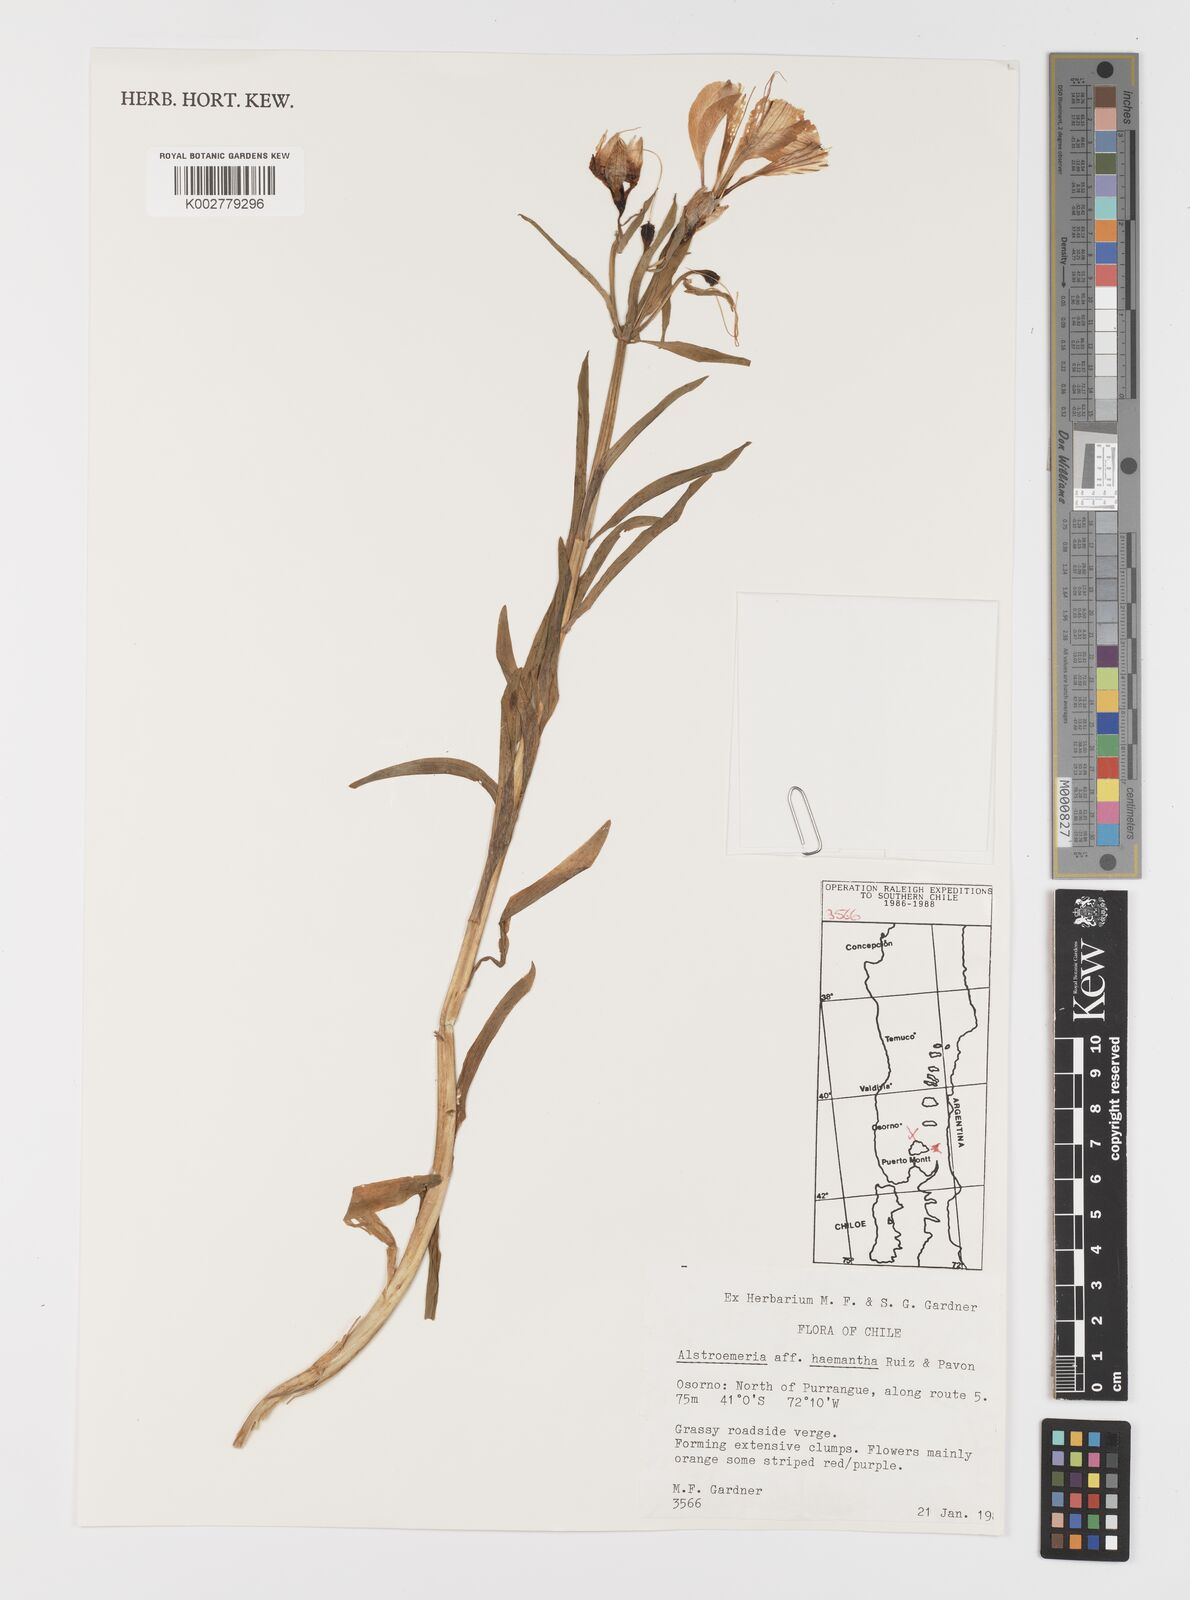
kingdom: Plantae
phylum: Tracheophyta
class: Liliopsida
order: Liliales
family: Alstroemeriaceae
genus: Alstroemeria
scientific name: Alstroemeria ligtu
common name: St. martin's-flower
